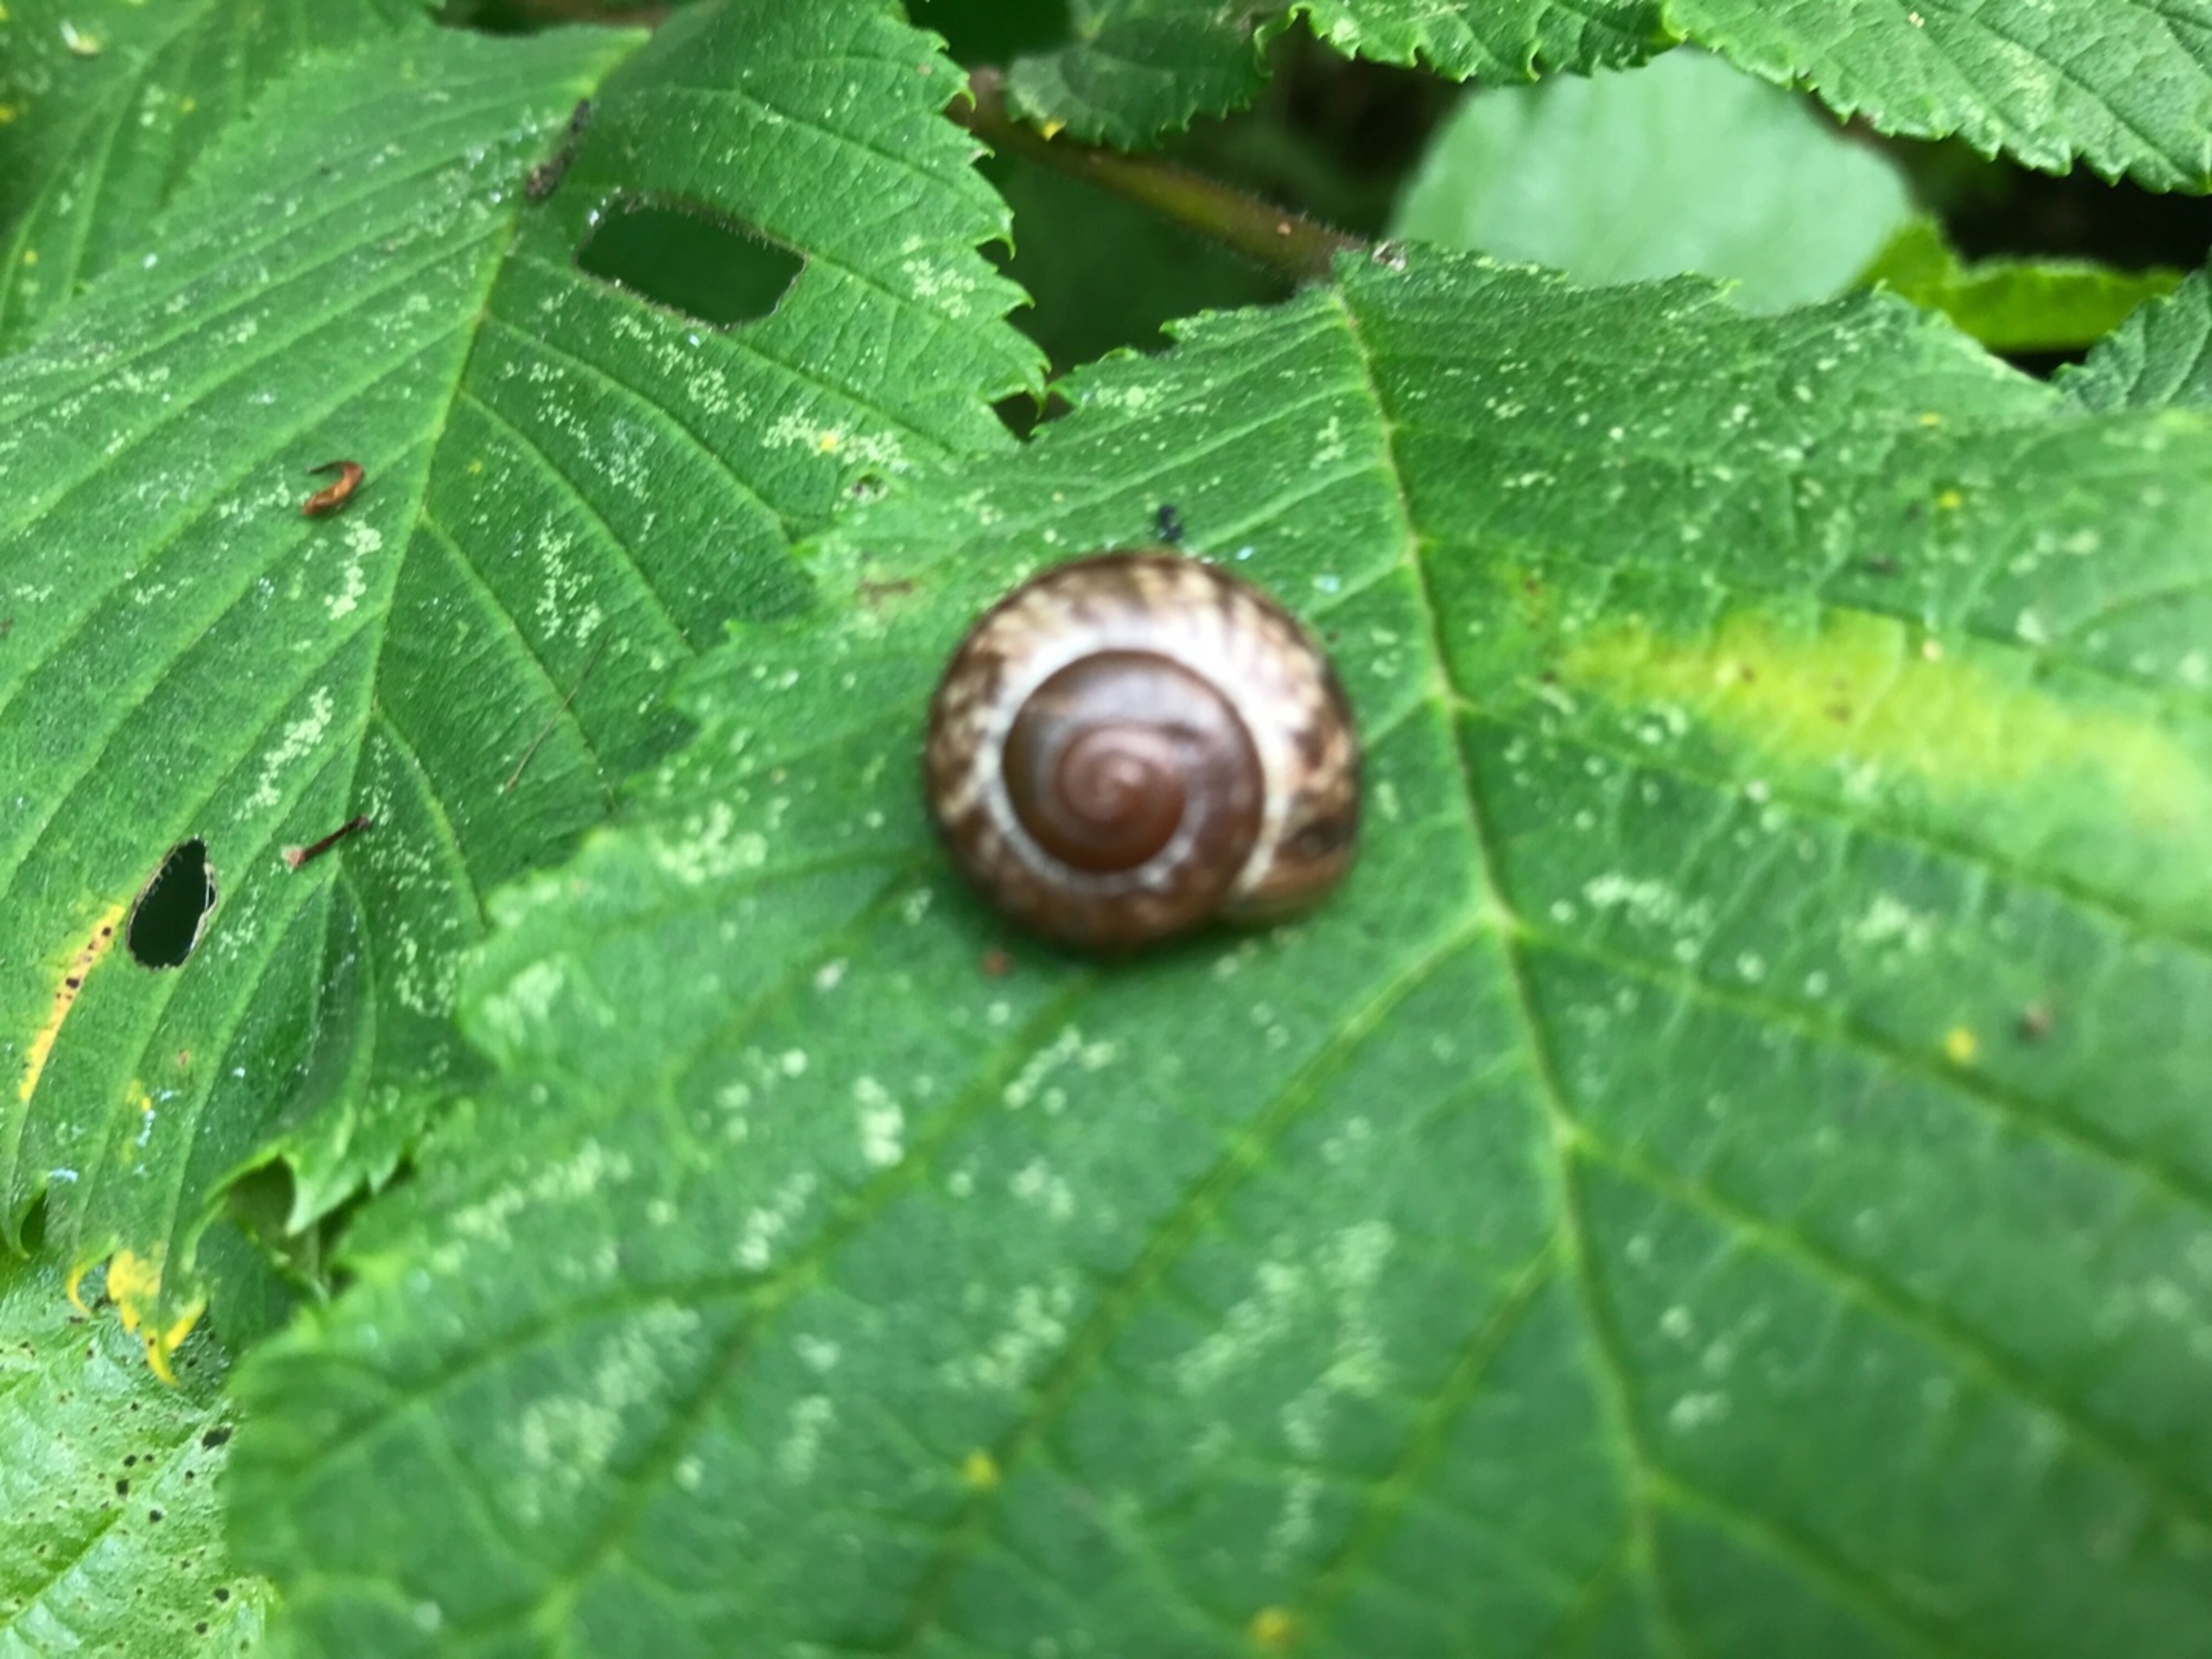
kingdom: Animalia
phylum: Mollusca
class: Gastropoda
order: Stylommatophora
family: Helicidae
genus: Arianta
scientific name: Arianta arbustorum
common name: Kratsnegl
